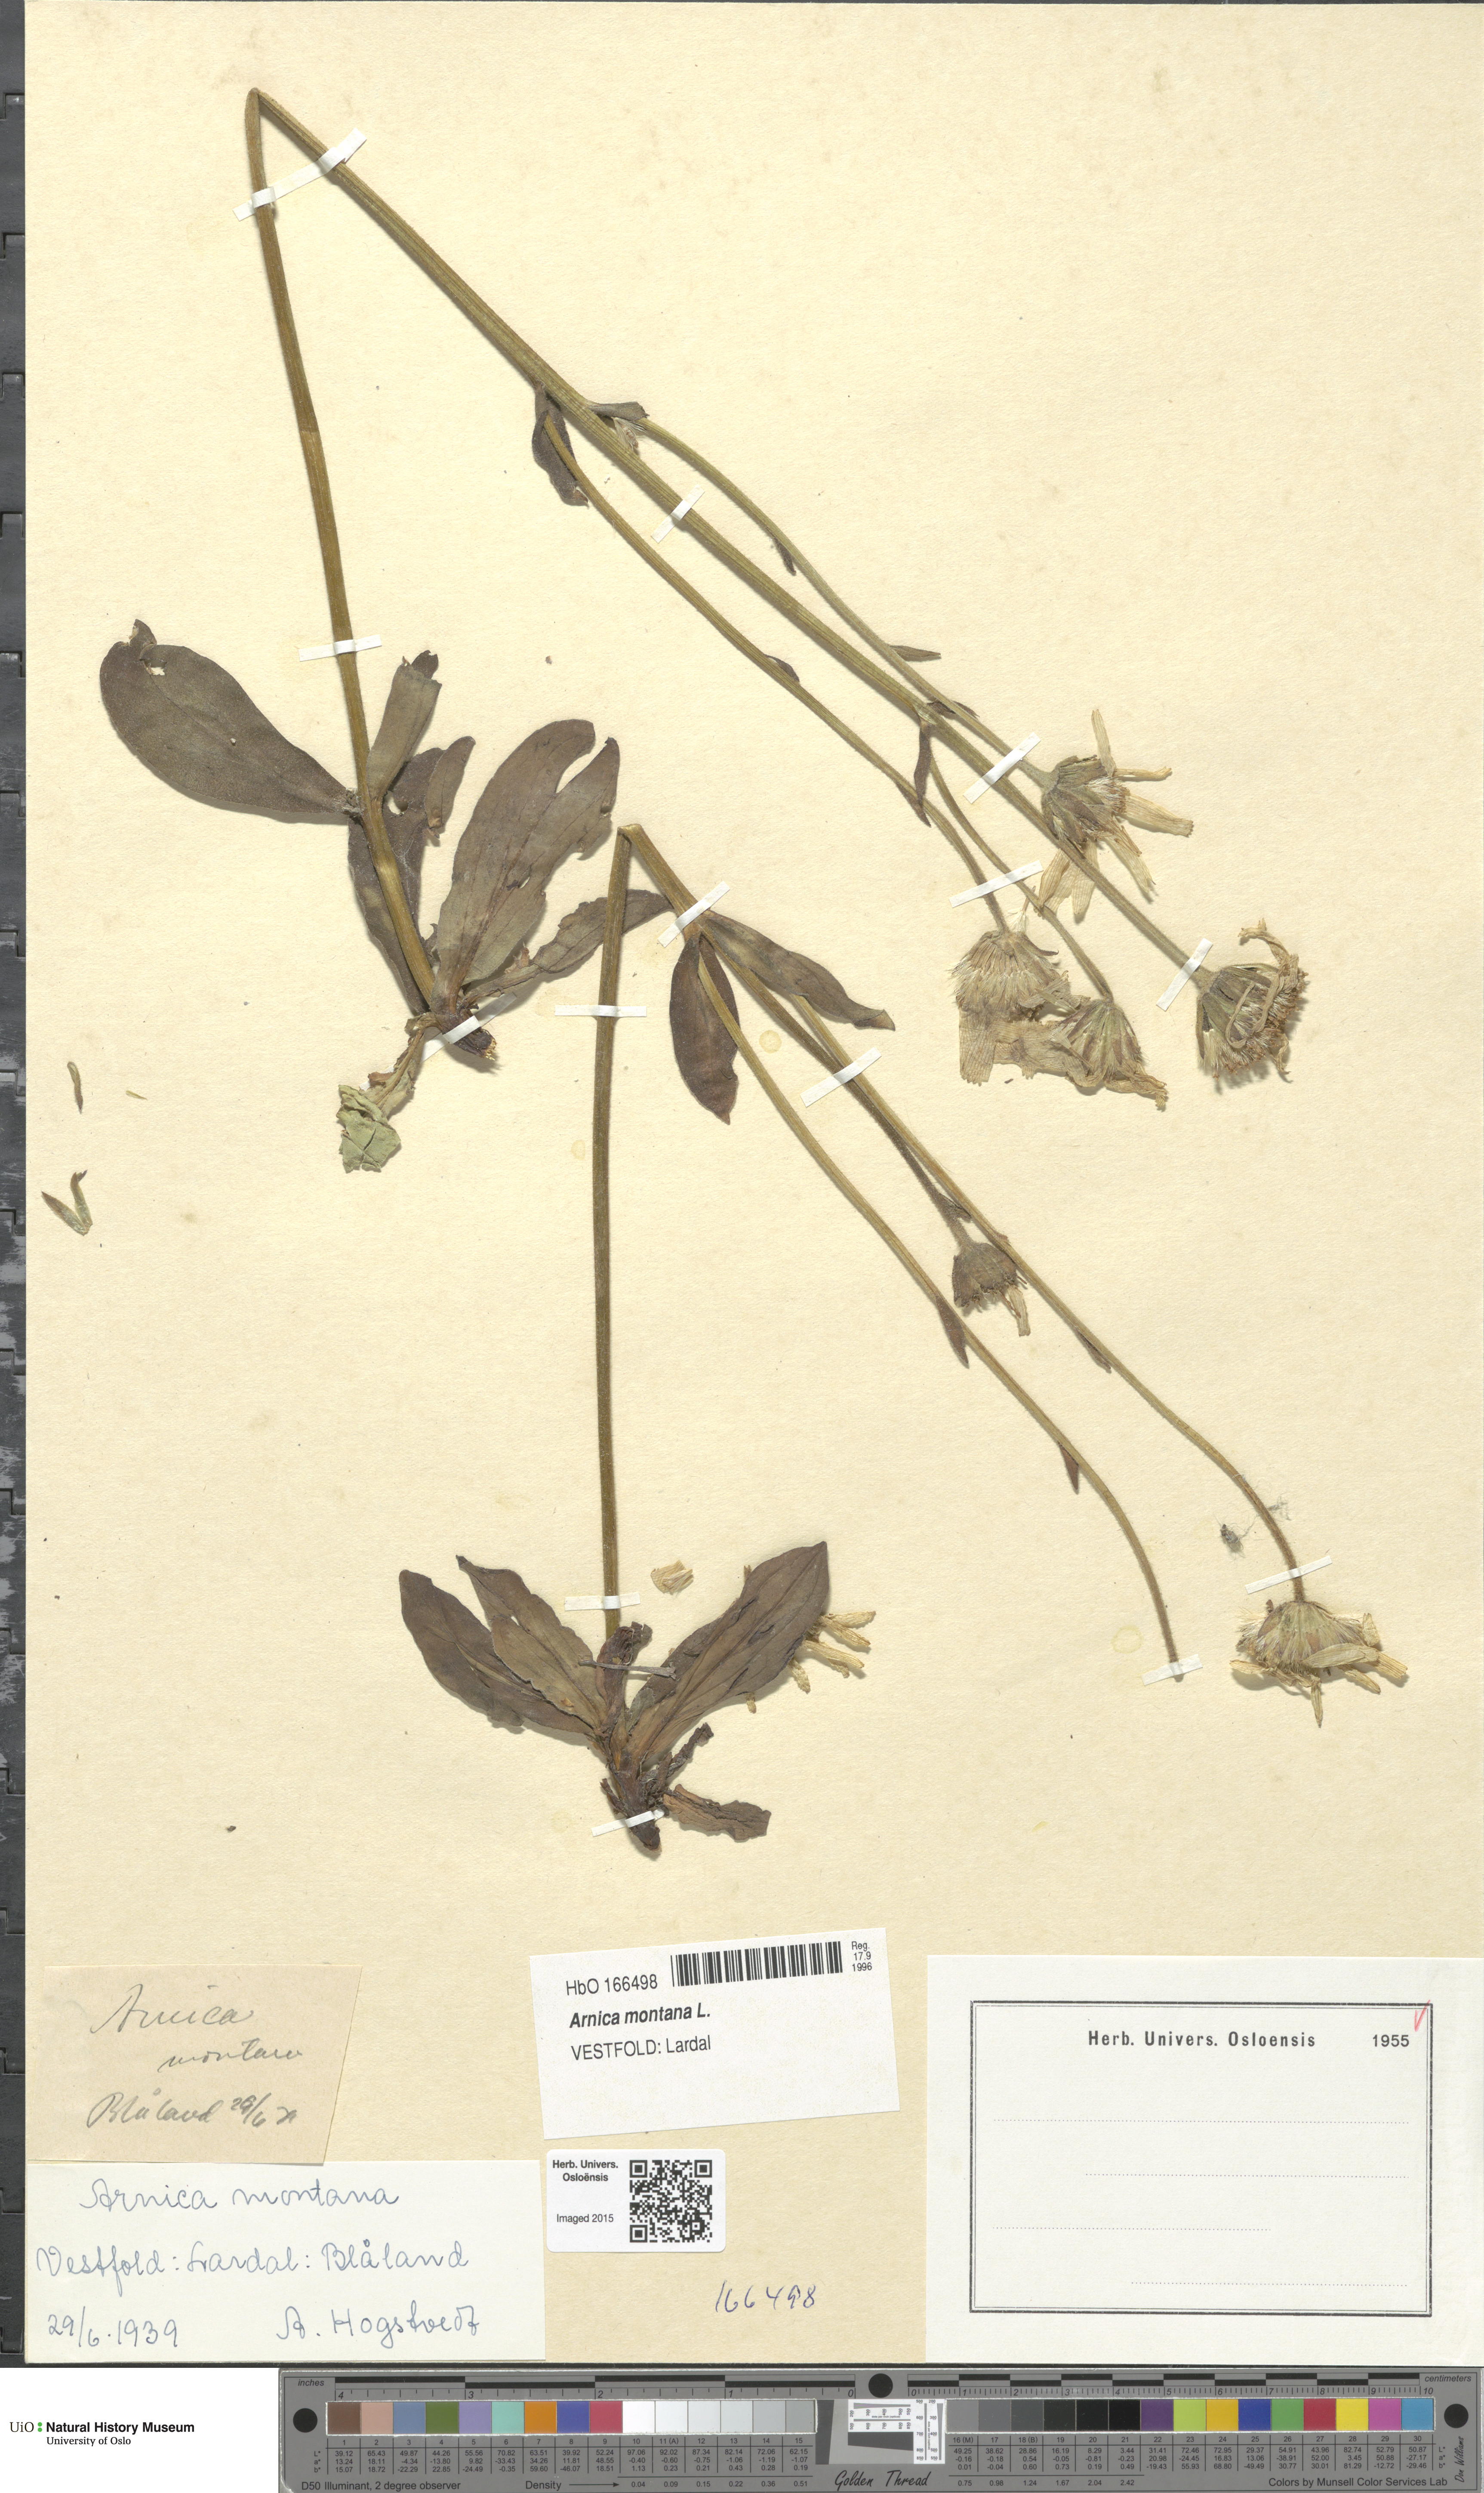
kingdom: Plantae
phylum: Tracheophyta
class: Magnoliopsida
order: Asterales
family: Asteraceae
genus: Arnica
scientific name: Arnica montana
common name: Leopard's bane
